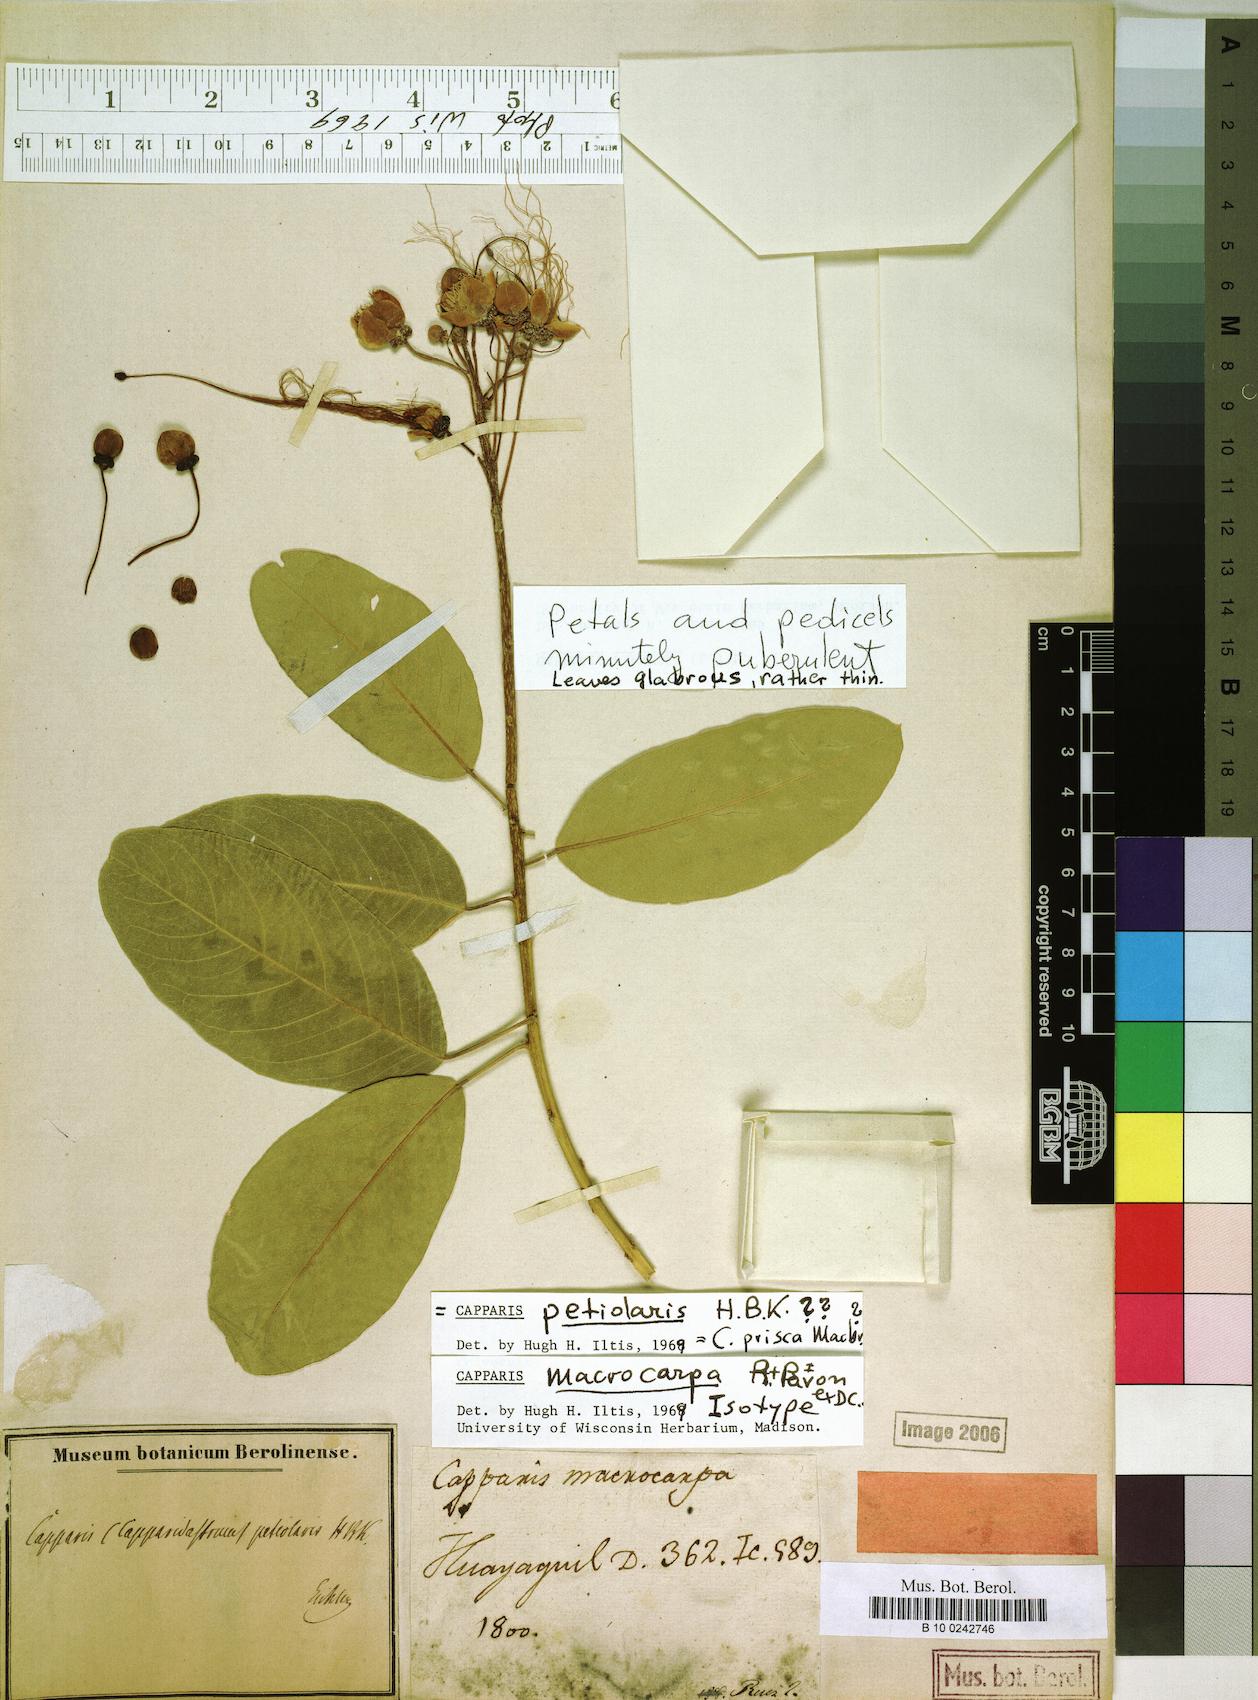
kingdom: Plantae
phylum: Tracheophyta
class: Magnoliopsida
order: Brassicales
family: Capparaceae
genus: Capparidastrum
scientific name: Capparidastrum petiolare
